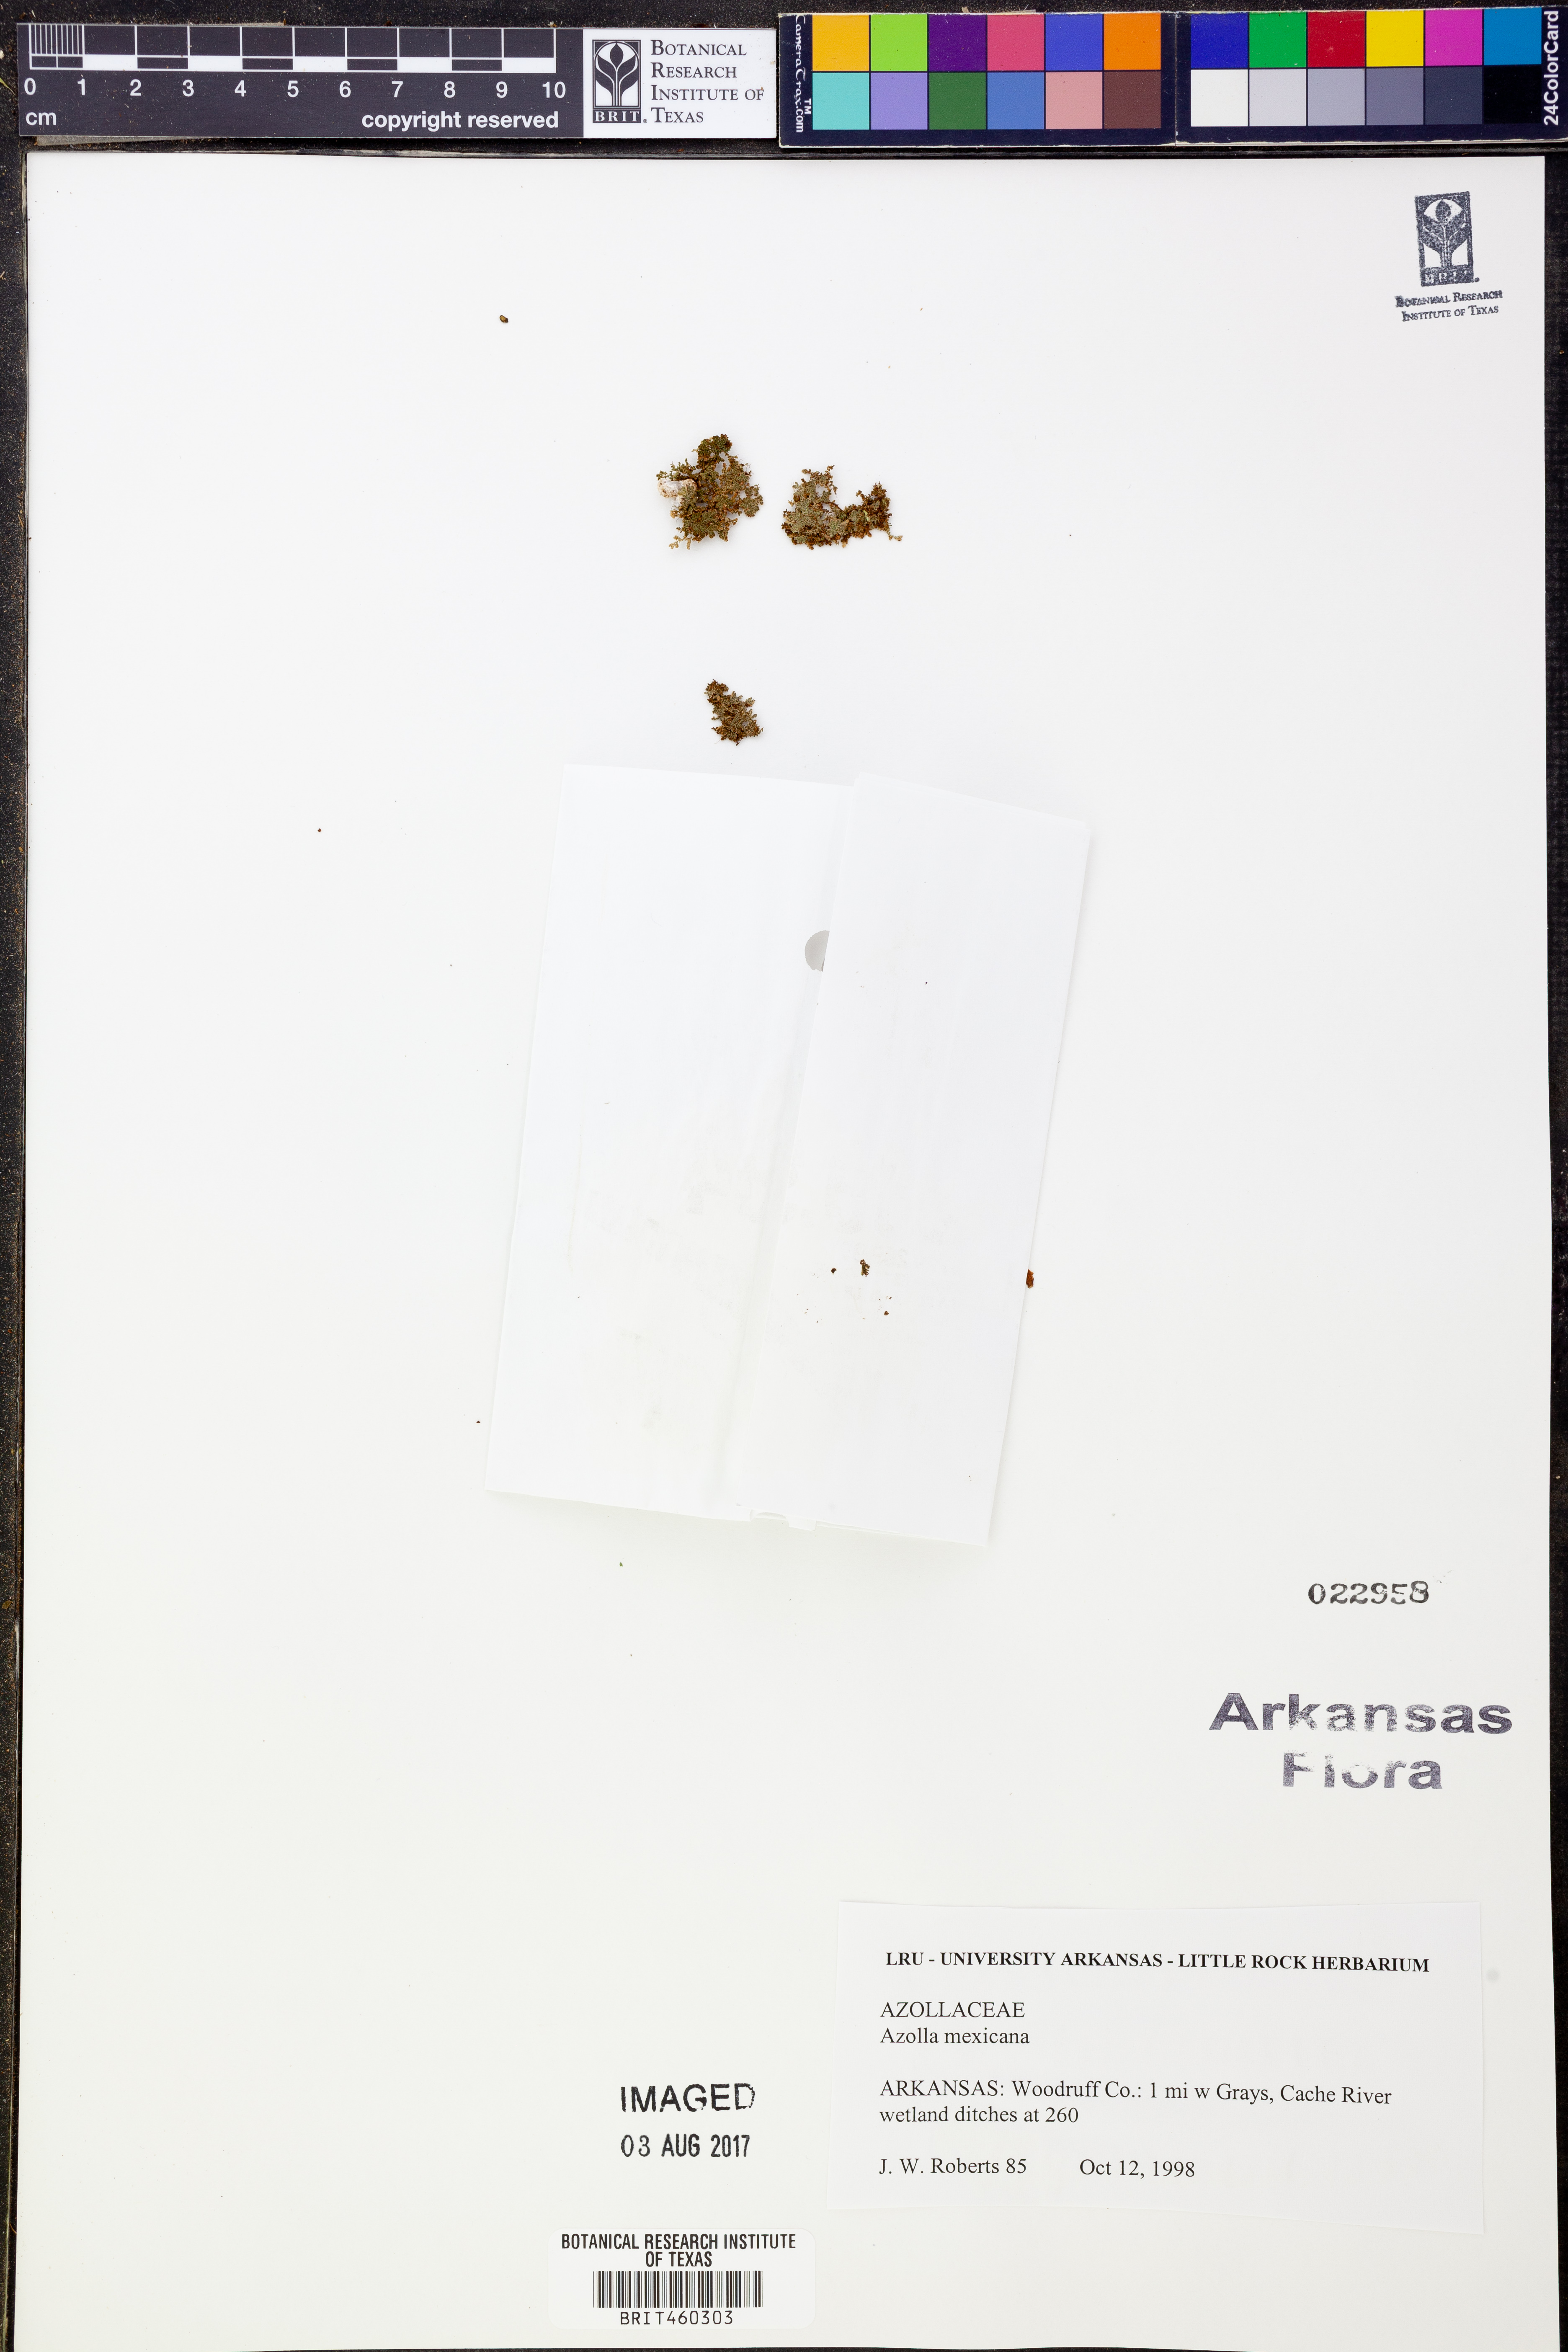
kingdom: Plantae
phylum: Tracheophyta
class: Polypodiopsida
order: Salviniales
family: Salviniaceae
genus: Azolla
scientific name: Azolla cristata
